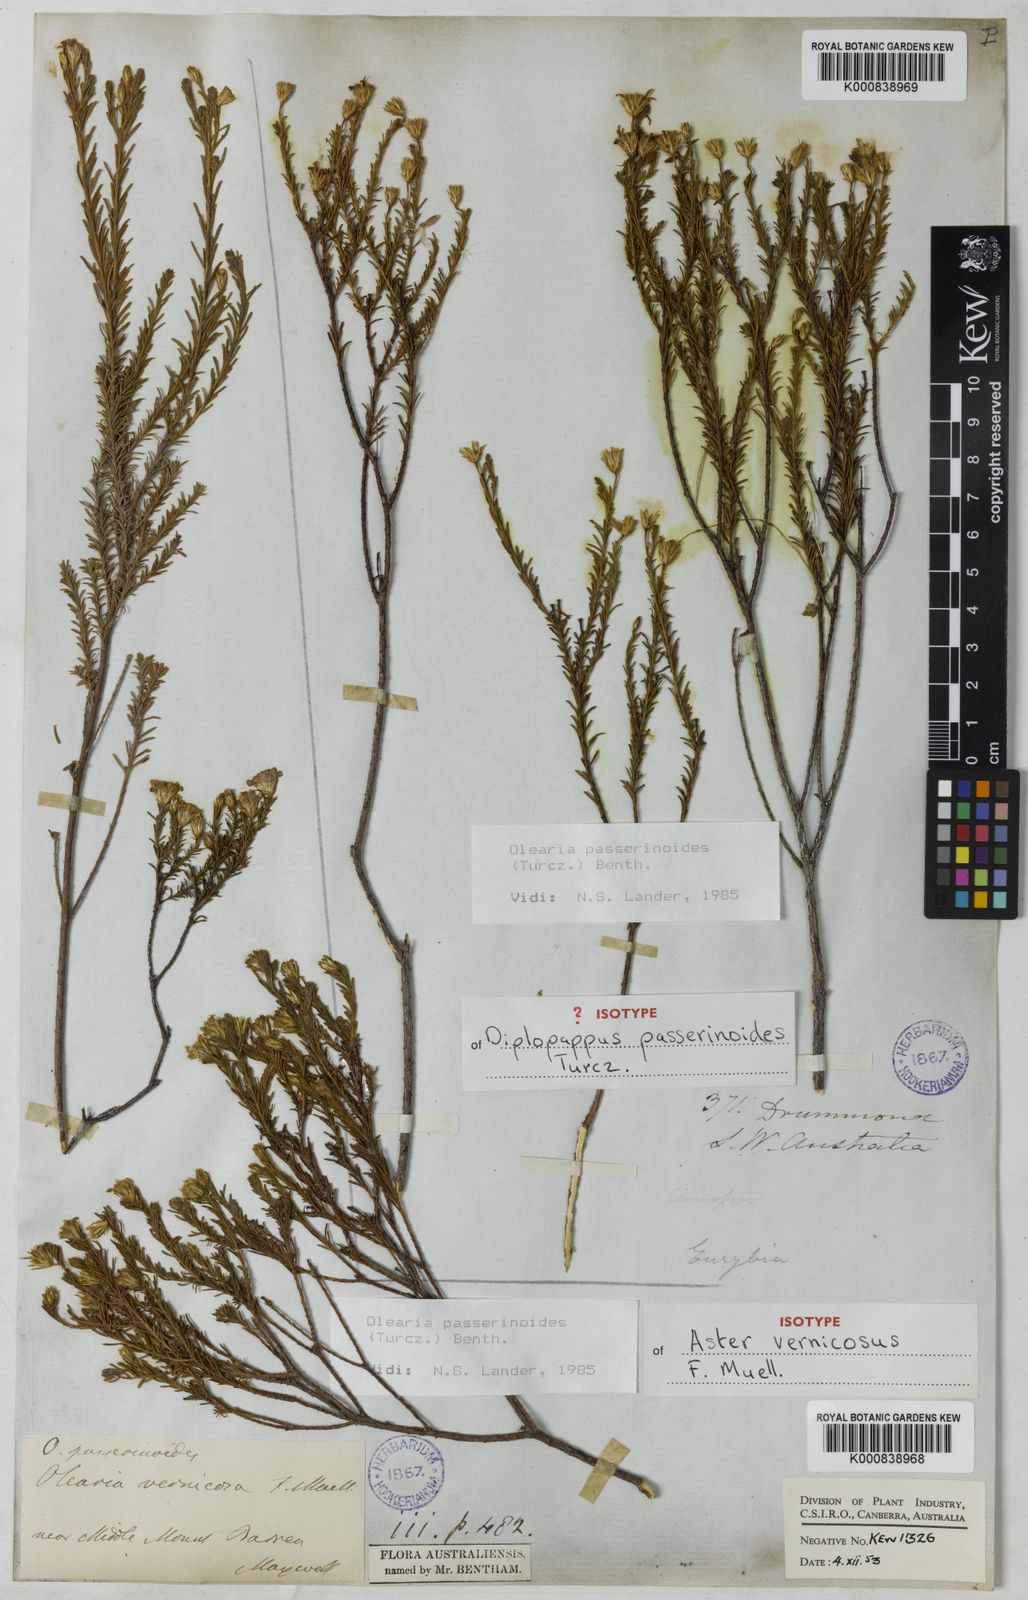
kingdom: Plantae
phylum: Tracheophyta
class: Magnoliopsida
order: Asterales
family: Asteraceae
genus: Olearia
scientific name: Olearia passerinoides
